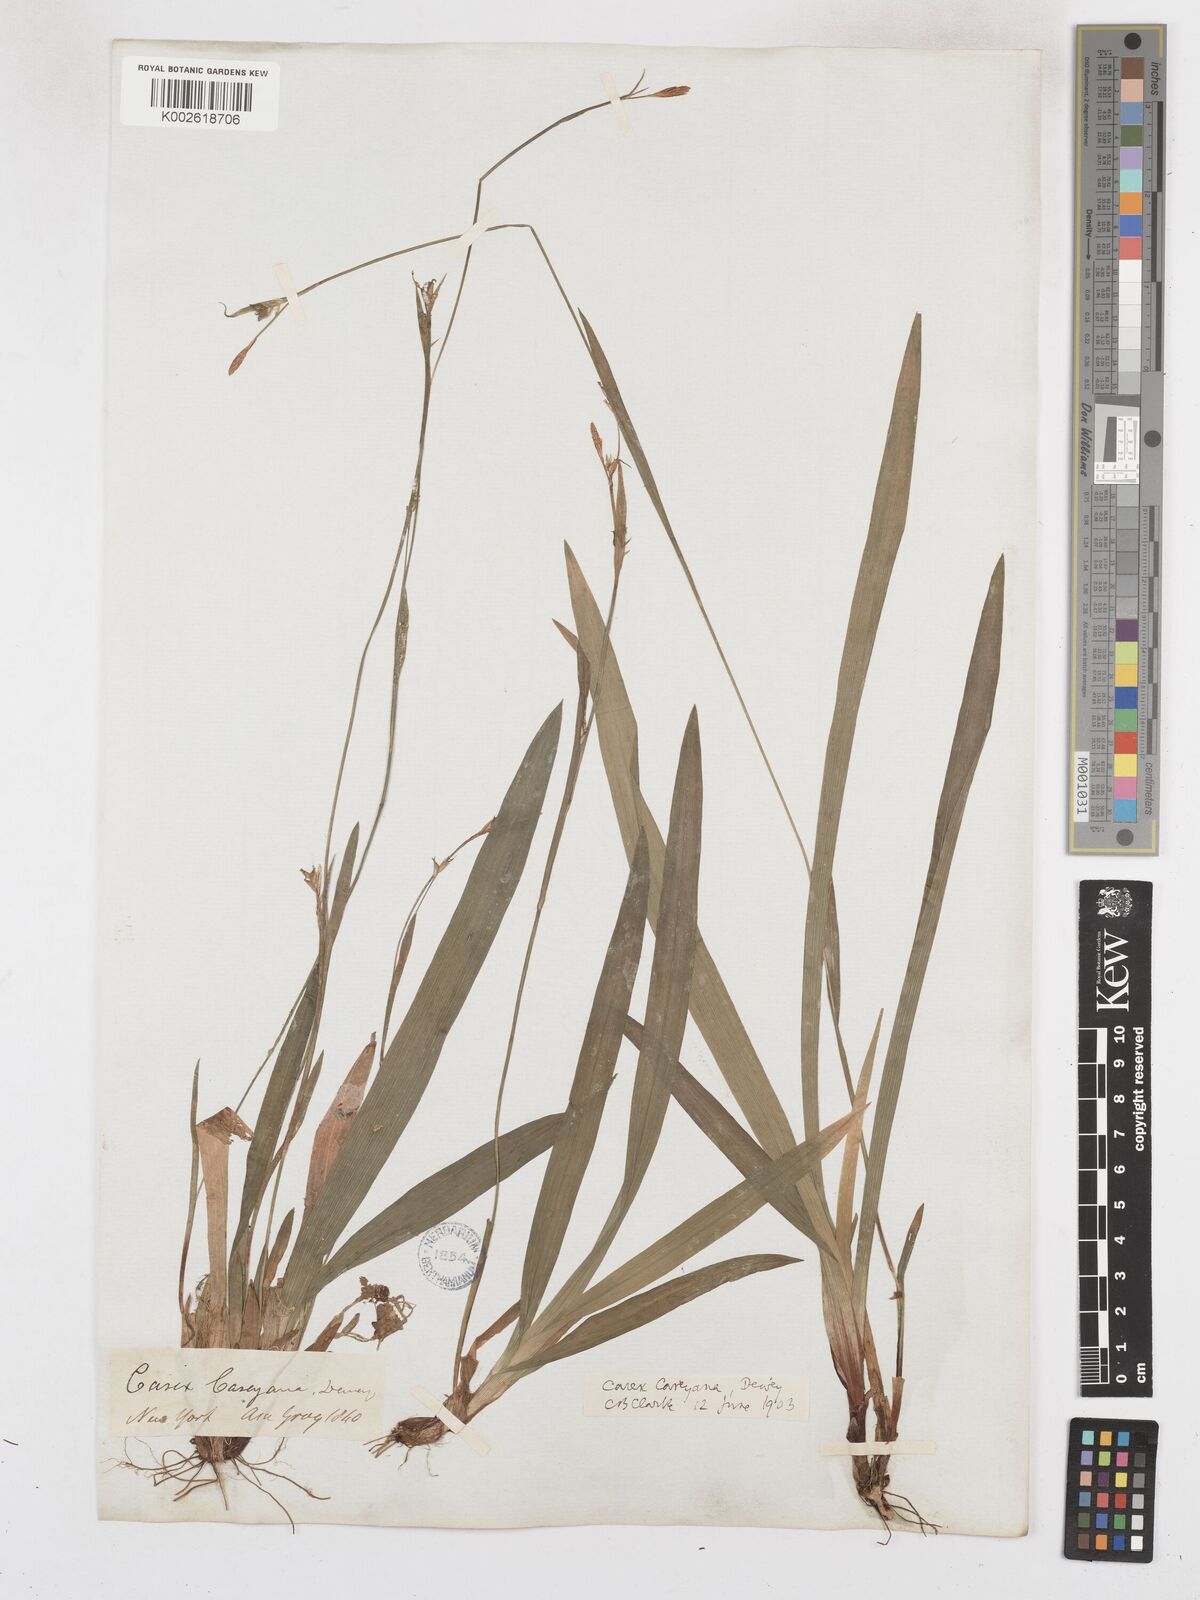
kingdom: Plantae
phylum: Tracheophyta
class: Liliopsida
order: Poales
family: Cyperaceae
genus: Carex
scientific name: Carex careyana
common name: Carey's sedge
